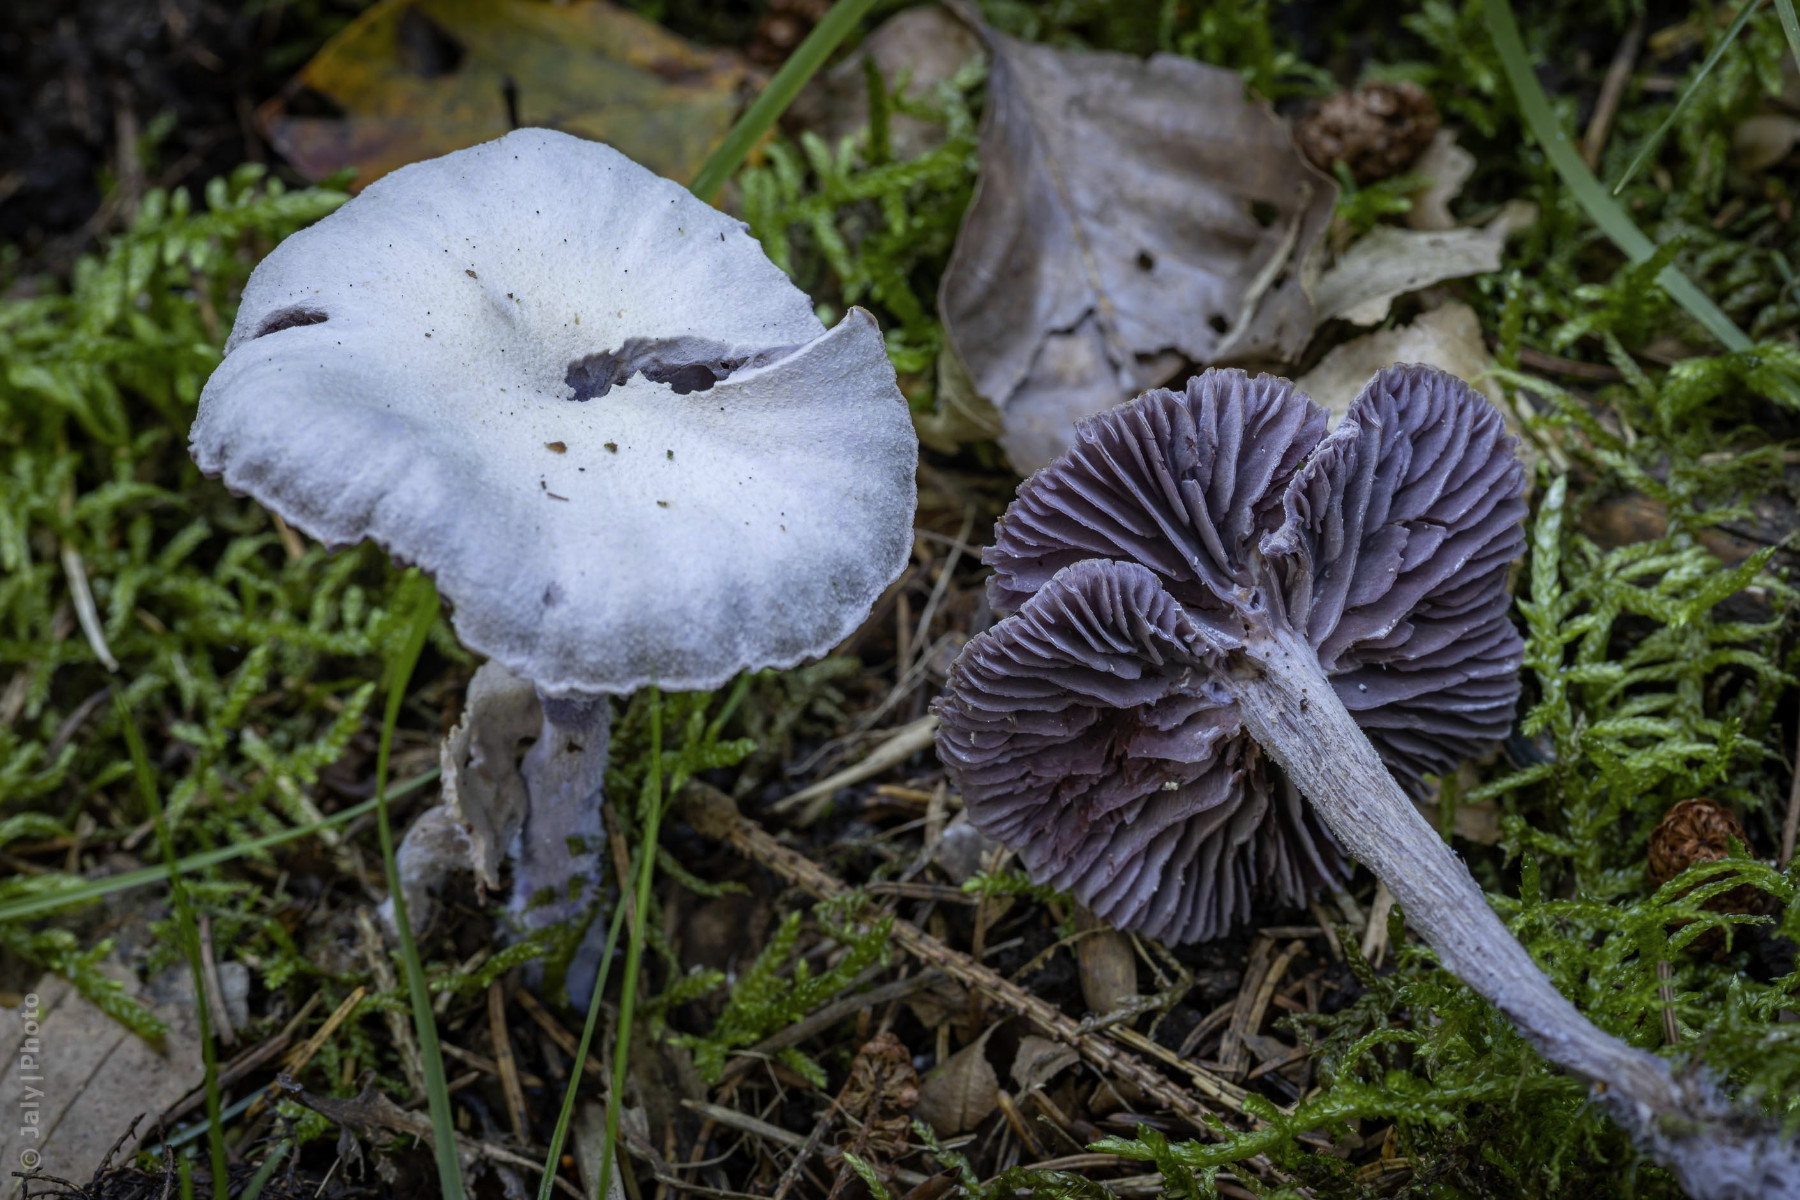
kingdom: Fungi
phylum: Basidiomycota
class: Agaricomycetes
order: Agaricales
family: Hydnangiaceae
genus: Laccaria
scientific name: Laccaria amethystina
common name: violet ametysthat
